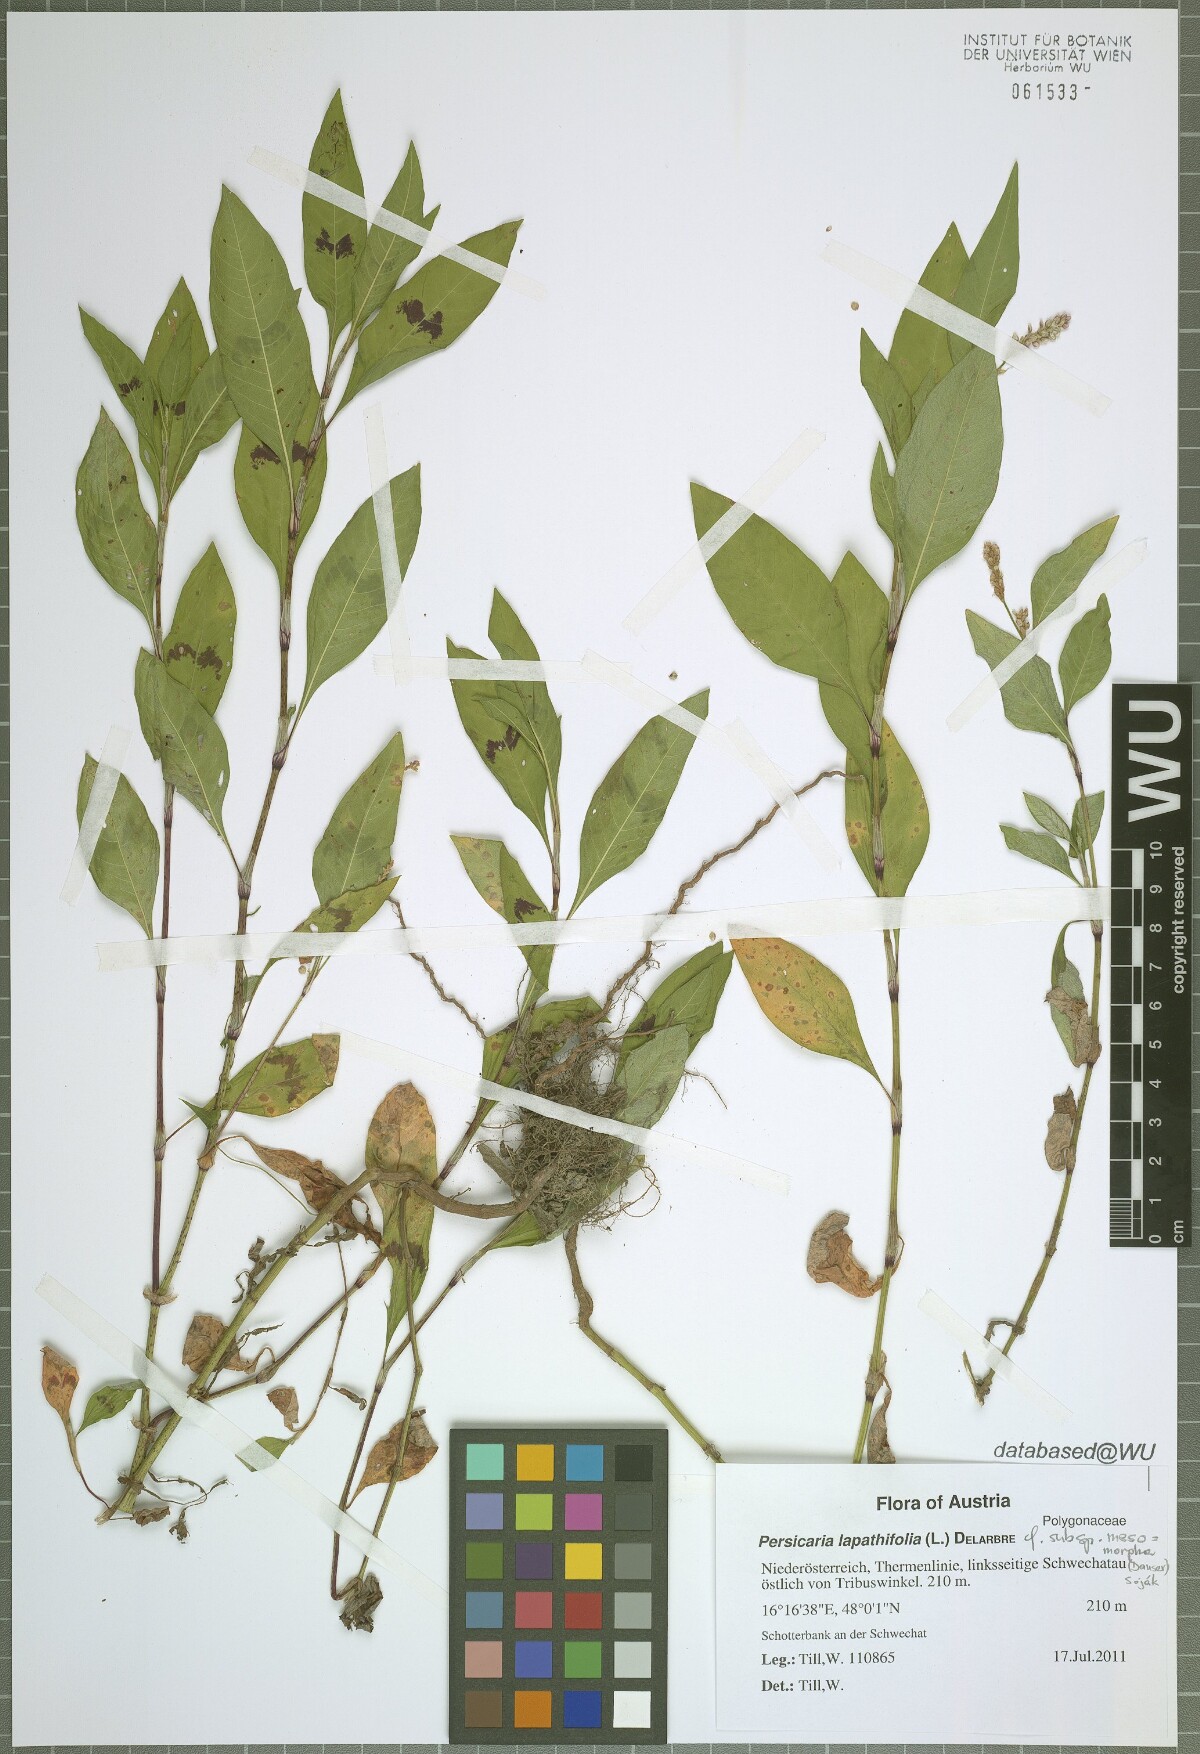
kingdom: Plantae
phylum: Tracheophyta
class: Magnoliopsida
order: Caryophyllales
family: Polygonaceae
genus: Persicaria
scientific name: Persicaria lapathifolia
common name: Curlytop knotweed
